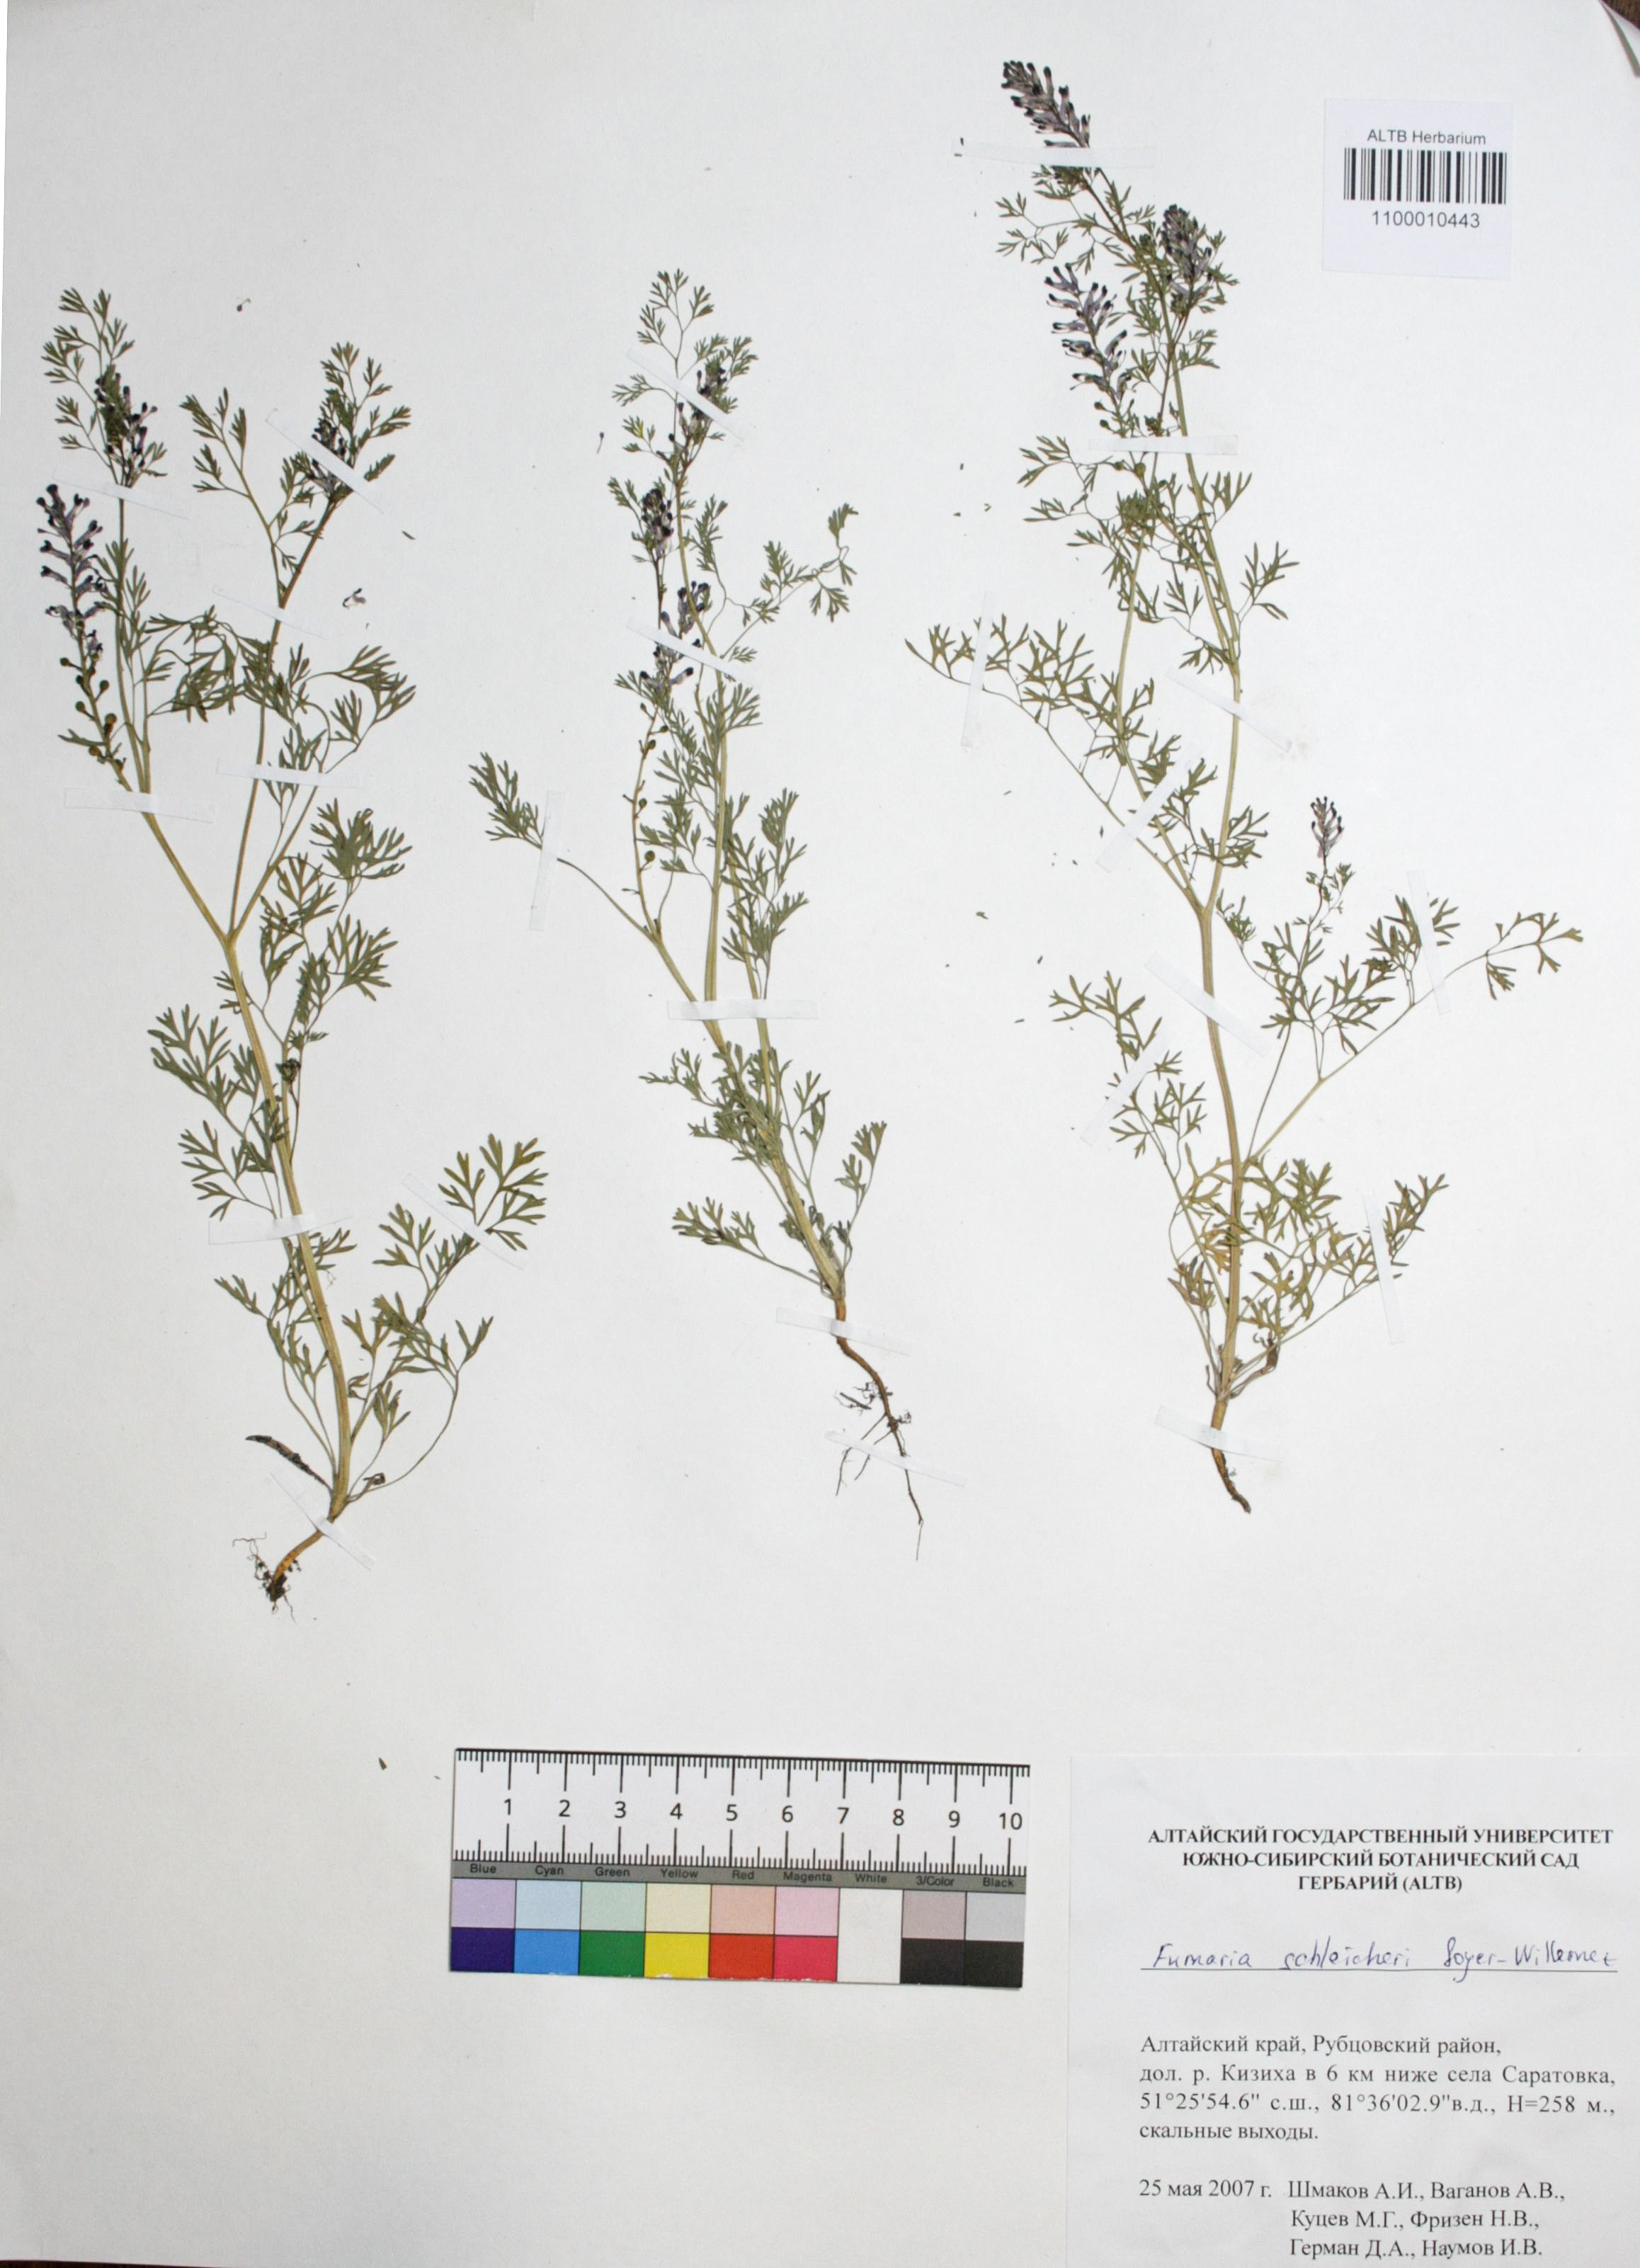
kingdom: Plantae
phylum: Tracheophyta
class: Magnoliopsida
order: Ranunculales
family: Papaveraceae
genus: Fumaria
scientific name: Fumaria schleicheri
